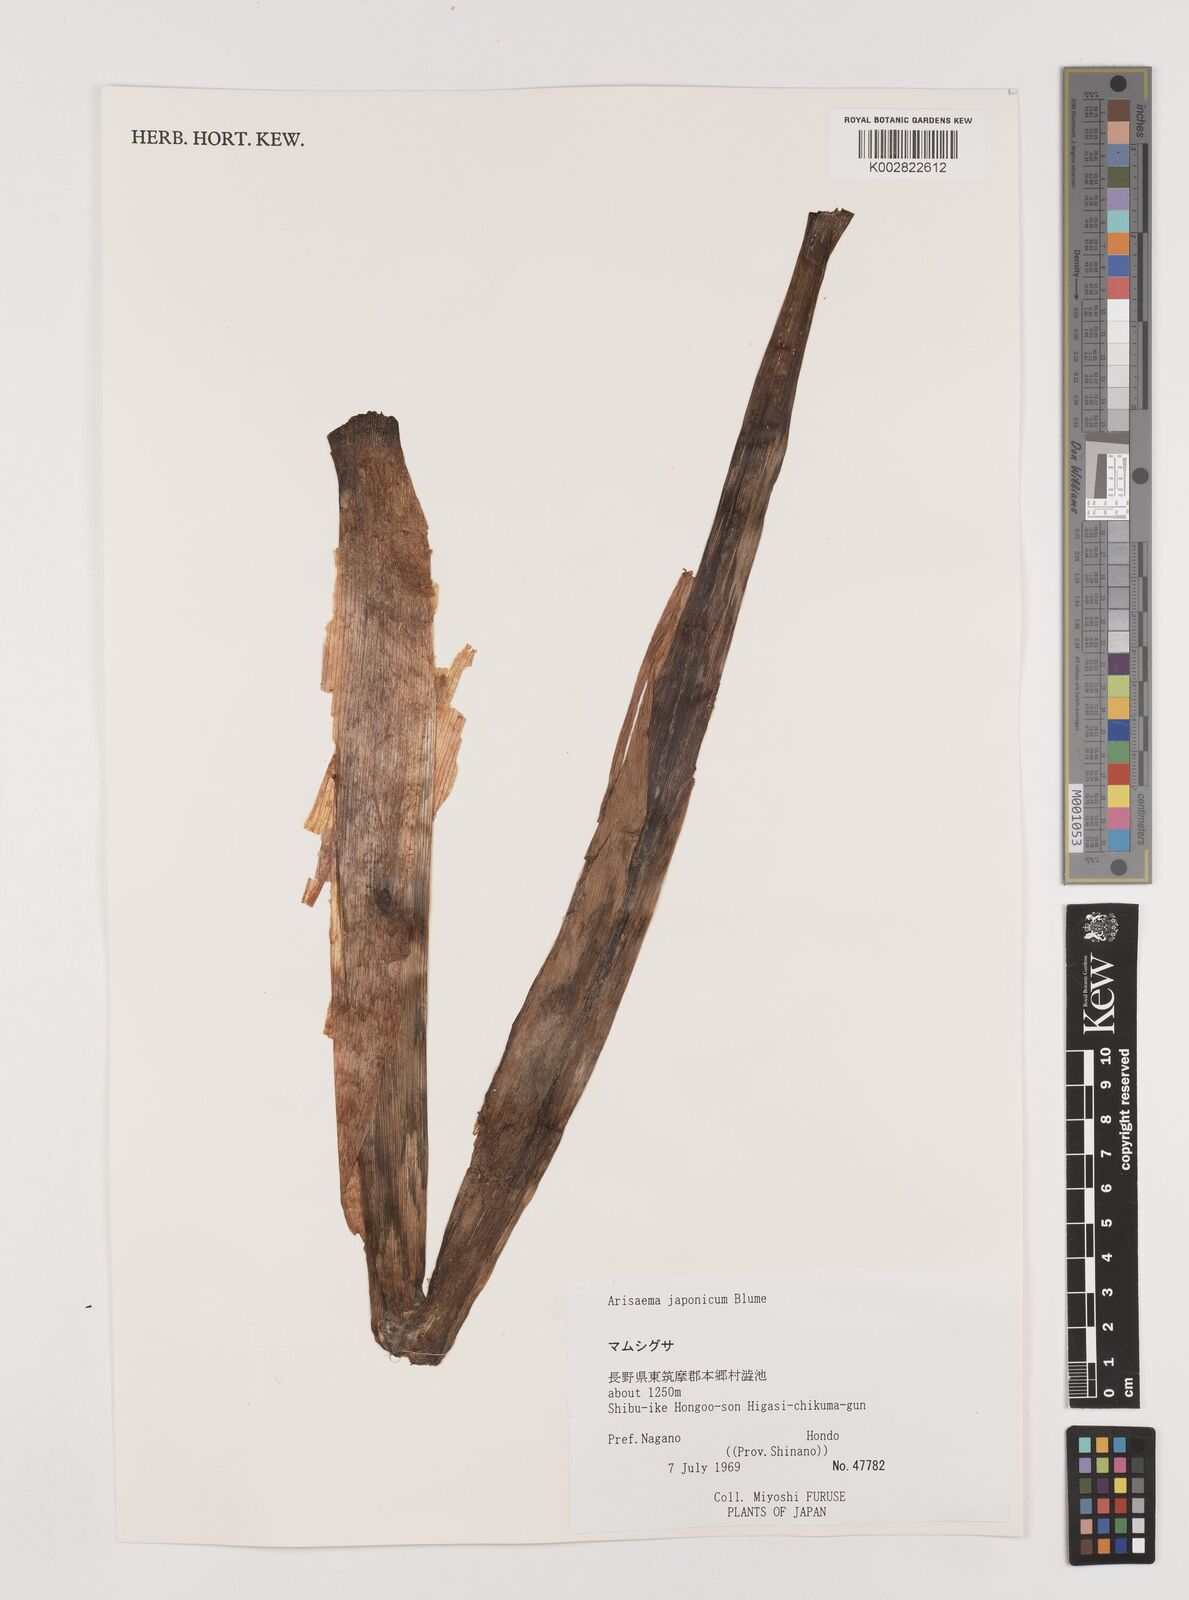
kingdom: Plantae
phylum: Tracheophyta
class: Liliopsida
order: Alismatales
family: Araceae
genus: Arisaema
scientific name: Arisaema serratum
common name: Japanese arisaema
